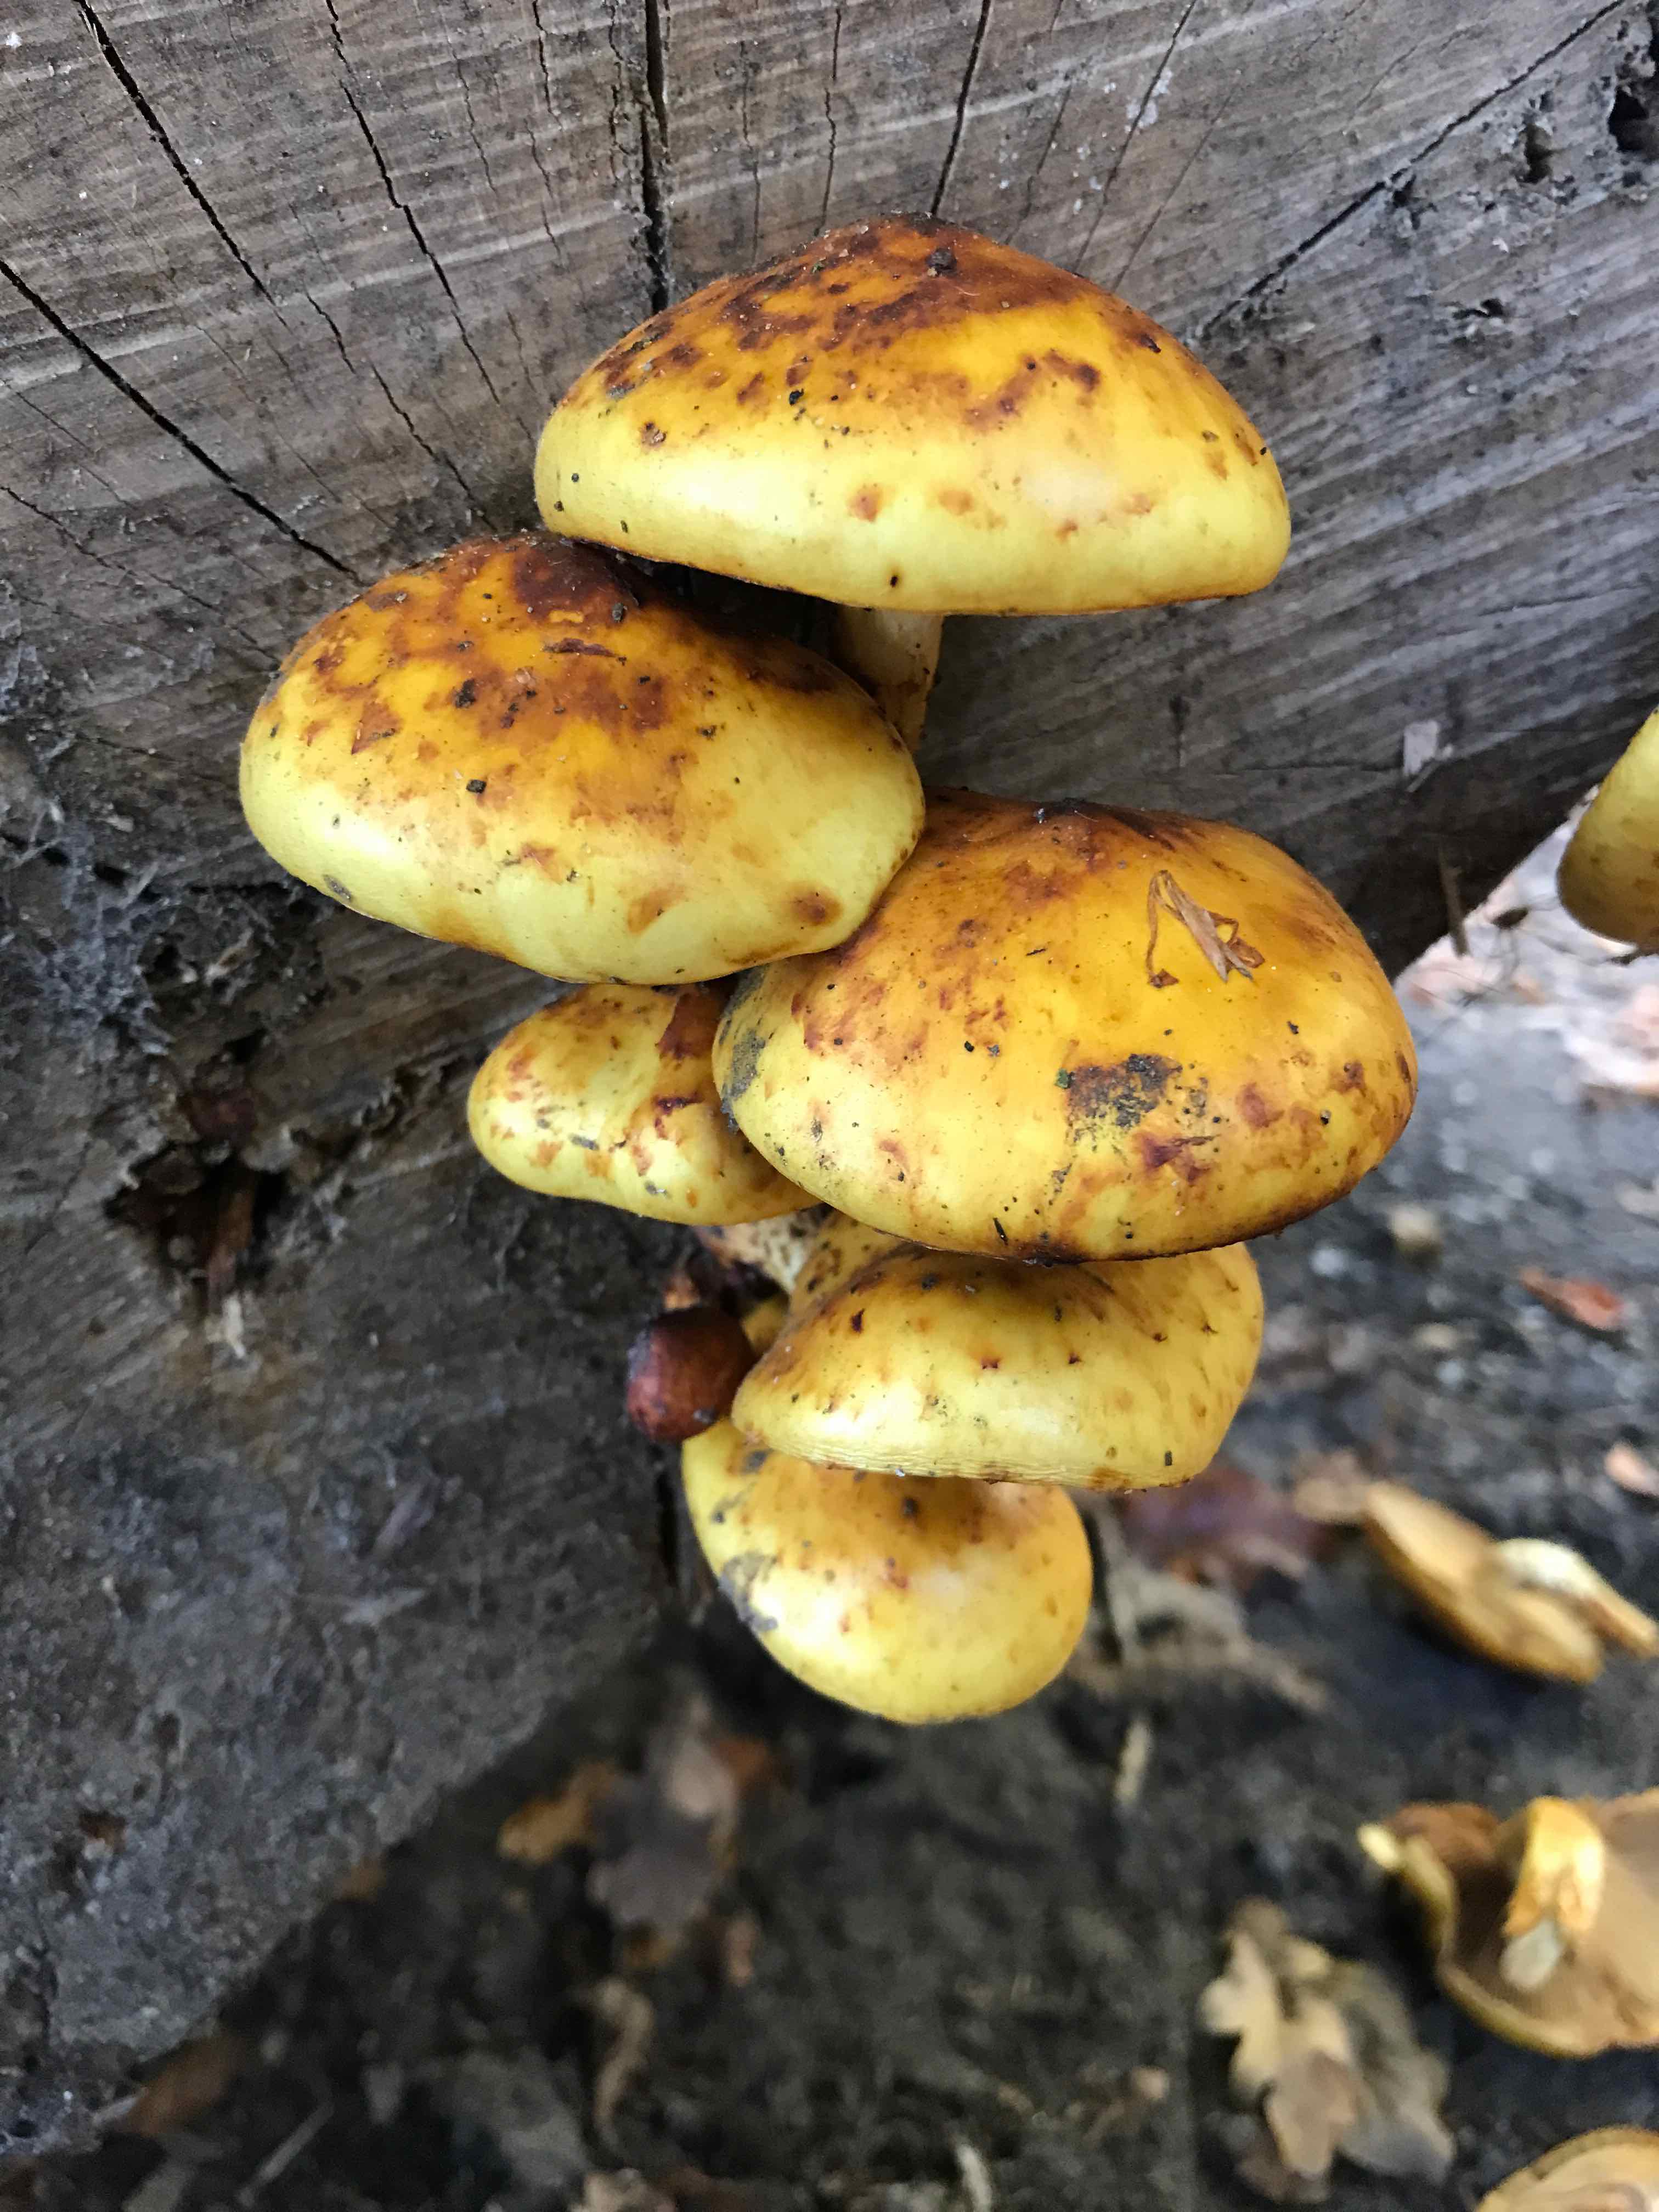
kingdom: Fungi
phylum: Basidiomycota
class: Agaricomycetes
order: Agaricales
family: Strophariaceae
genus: Pholiota
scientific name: Pholiota adiposa
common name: højtsiddende skælhat
